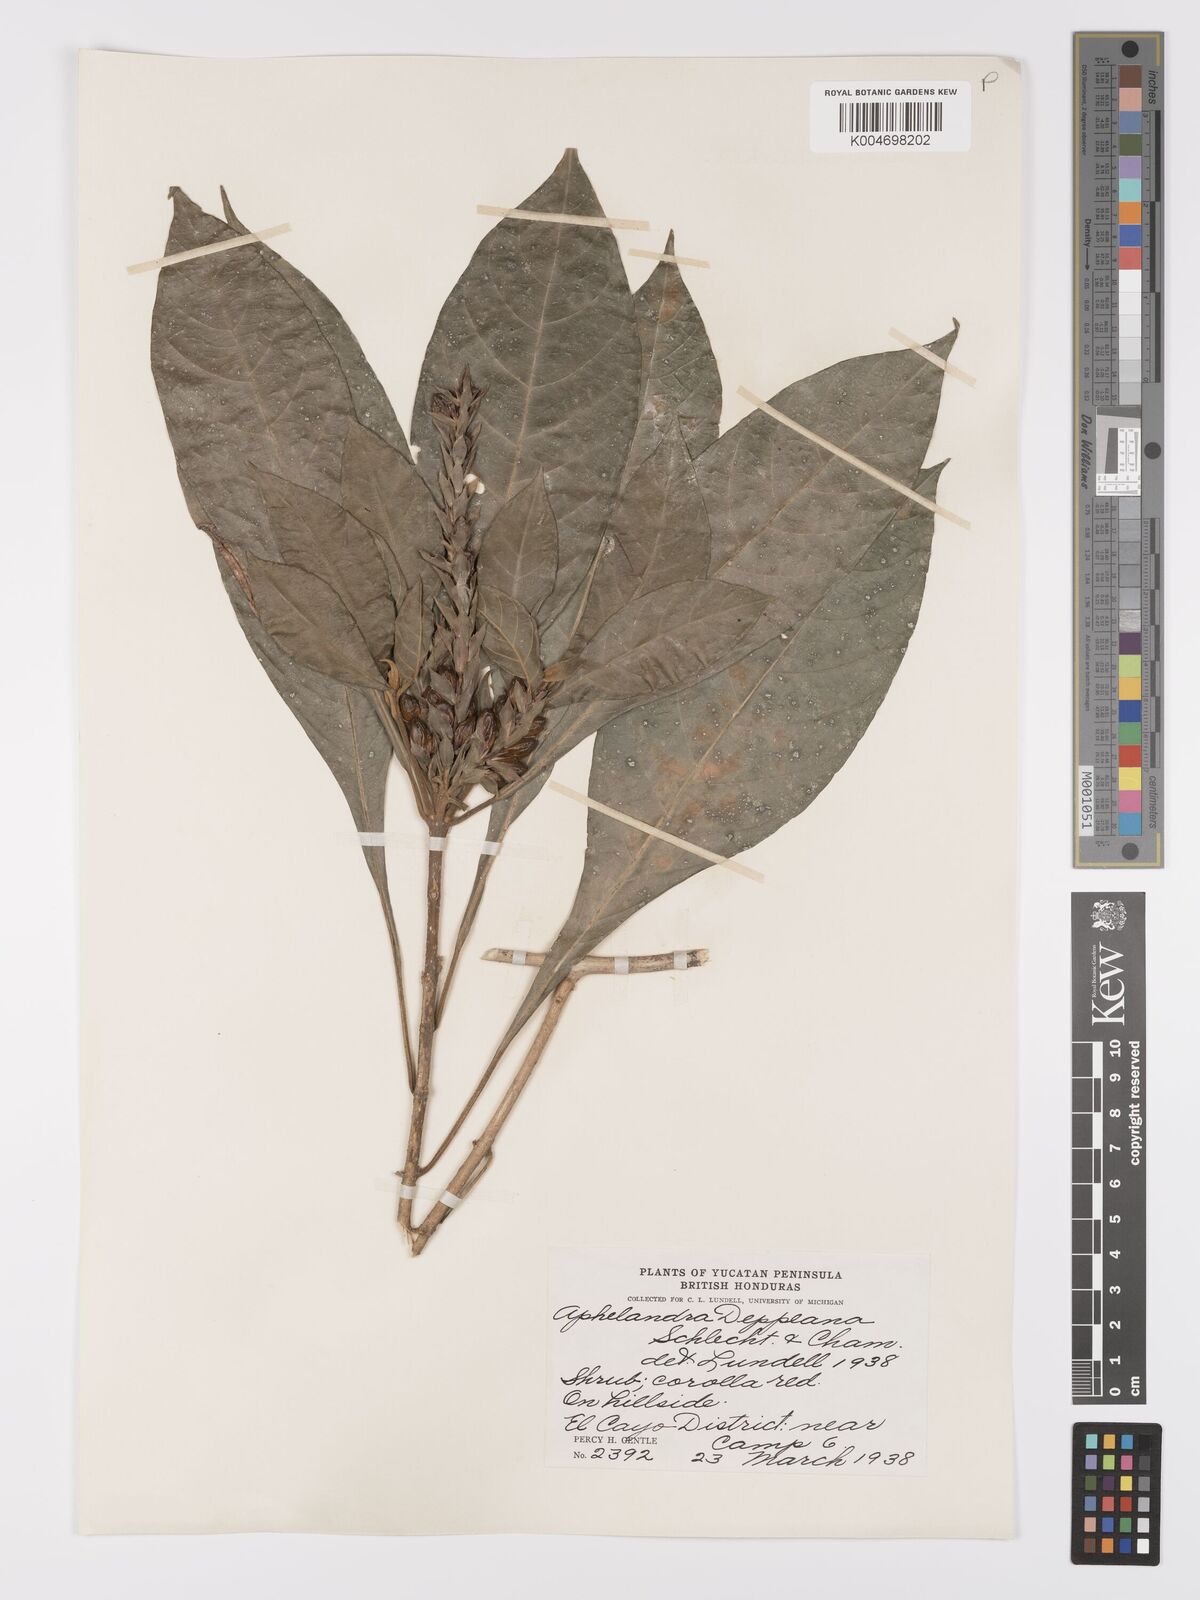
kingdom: Plantae
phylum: Tracheophyta
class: Magnoliopsida
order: Lamiales
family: Acanthaceae
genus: Aphelandra
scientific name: Aphelandra scabra
